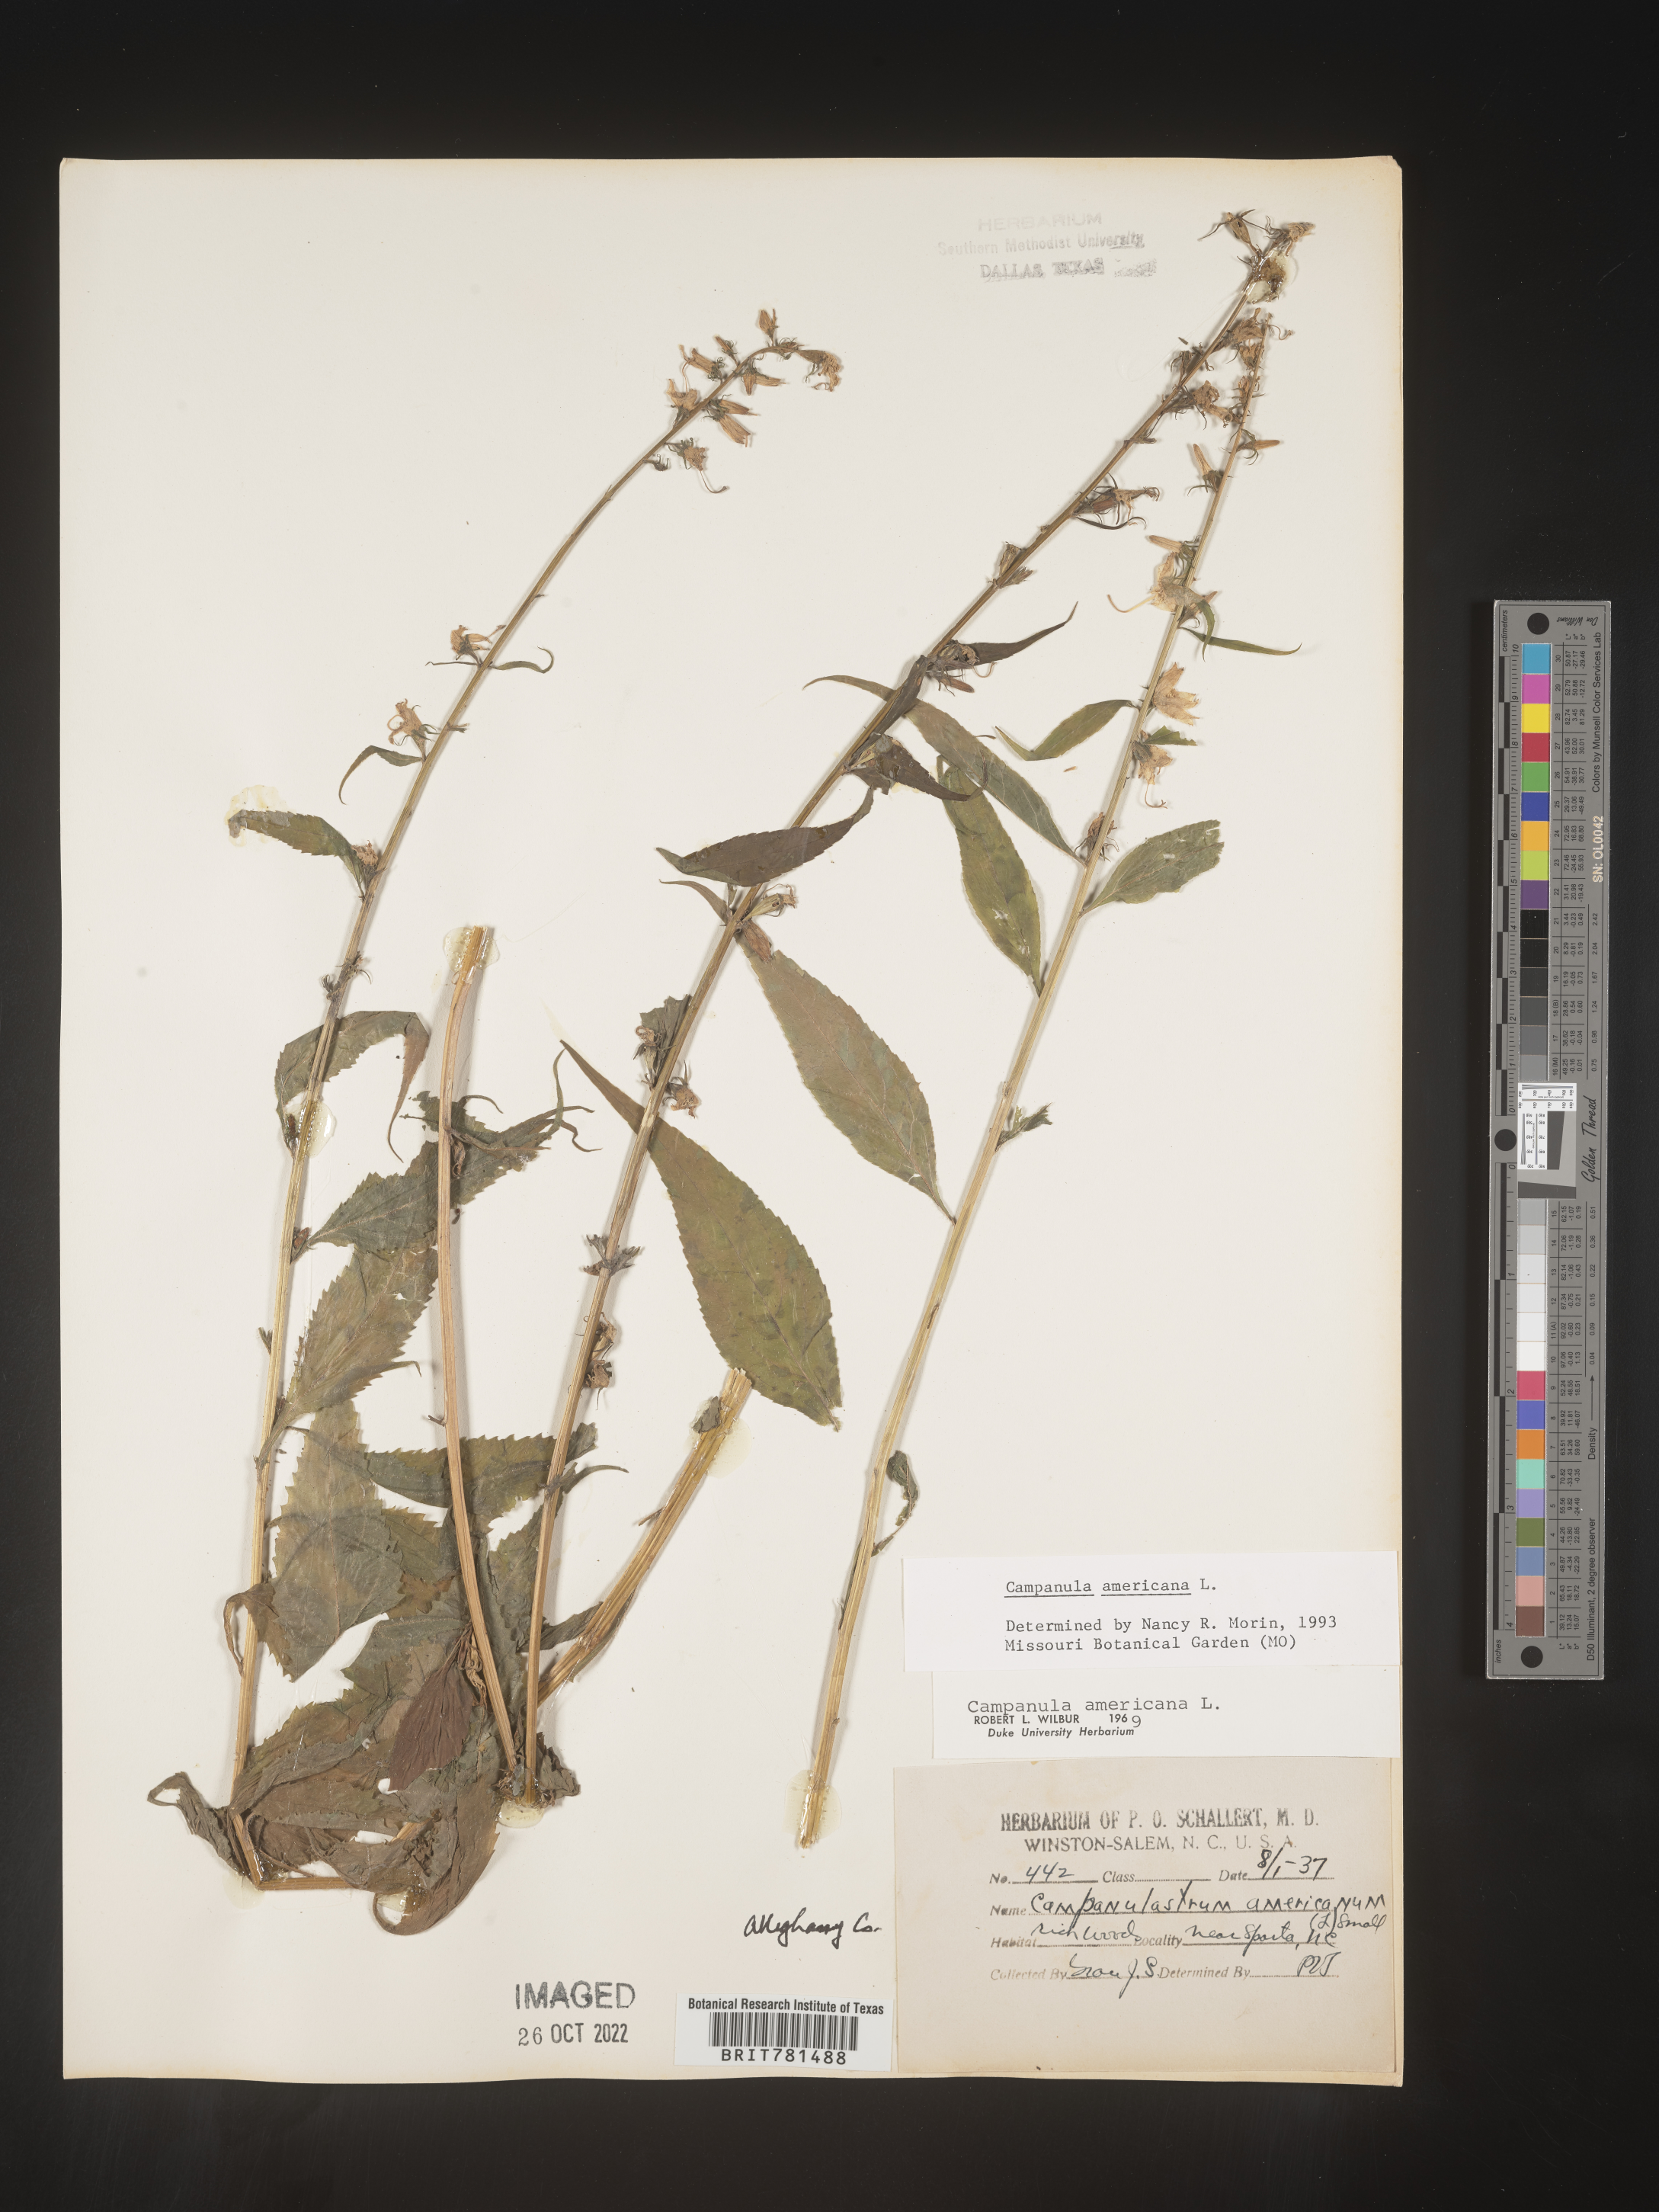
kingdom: Plantae
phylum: Tracheophyta
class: Magnoliopsida
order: Asterales
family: Campanulaceae
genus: Campanula
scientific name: Campanula americana
